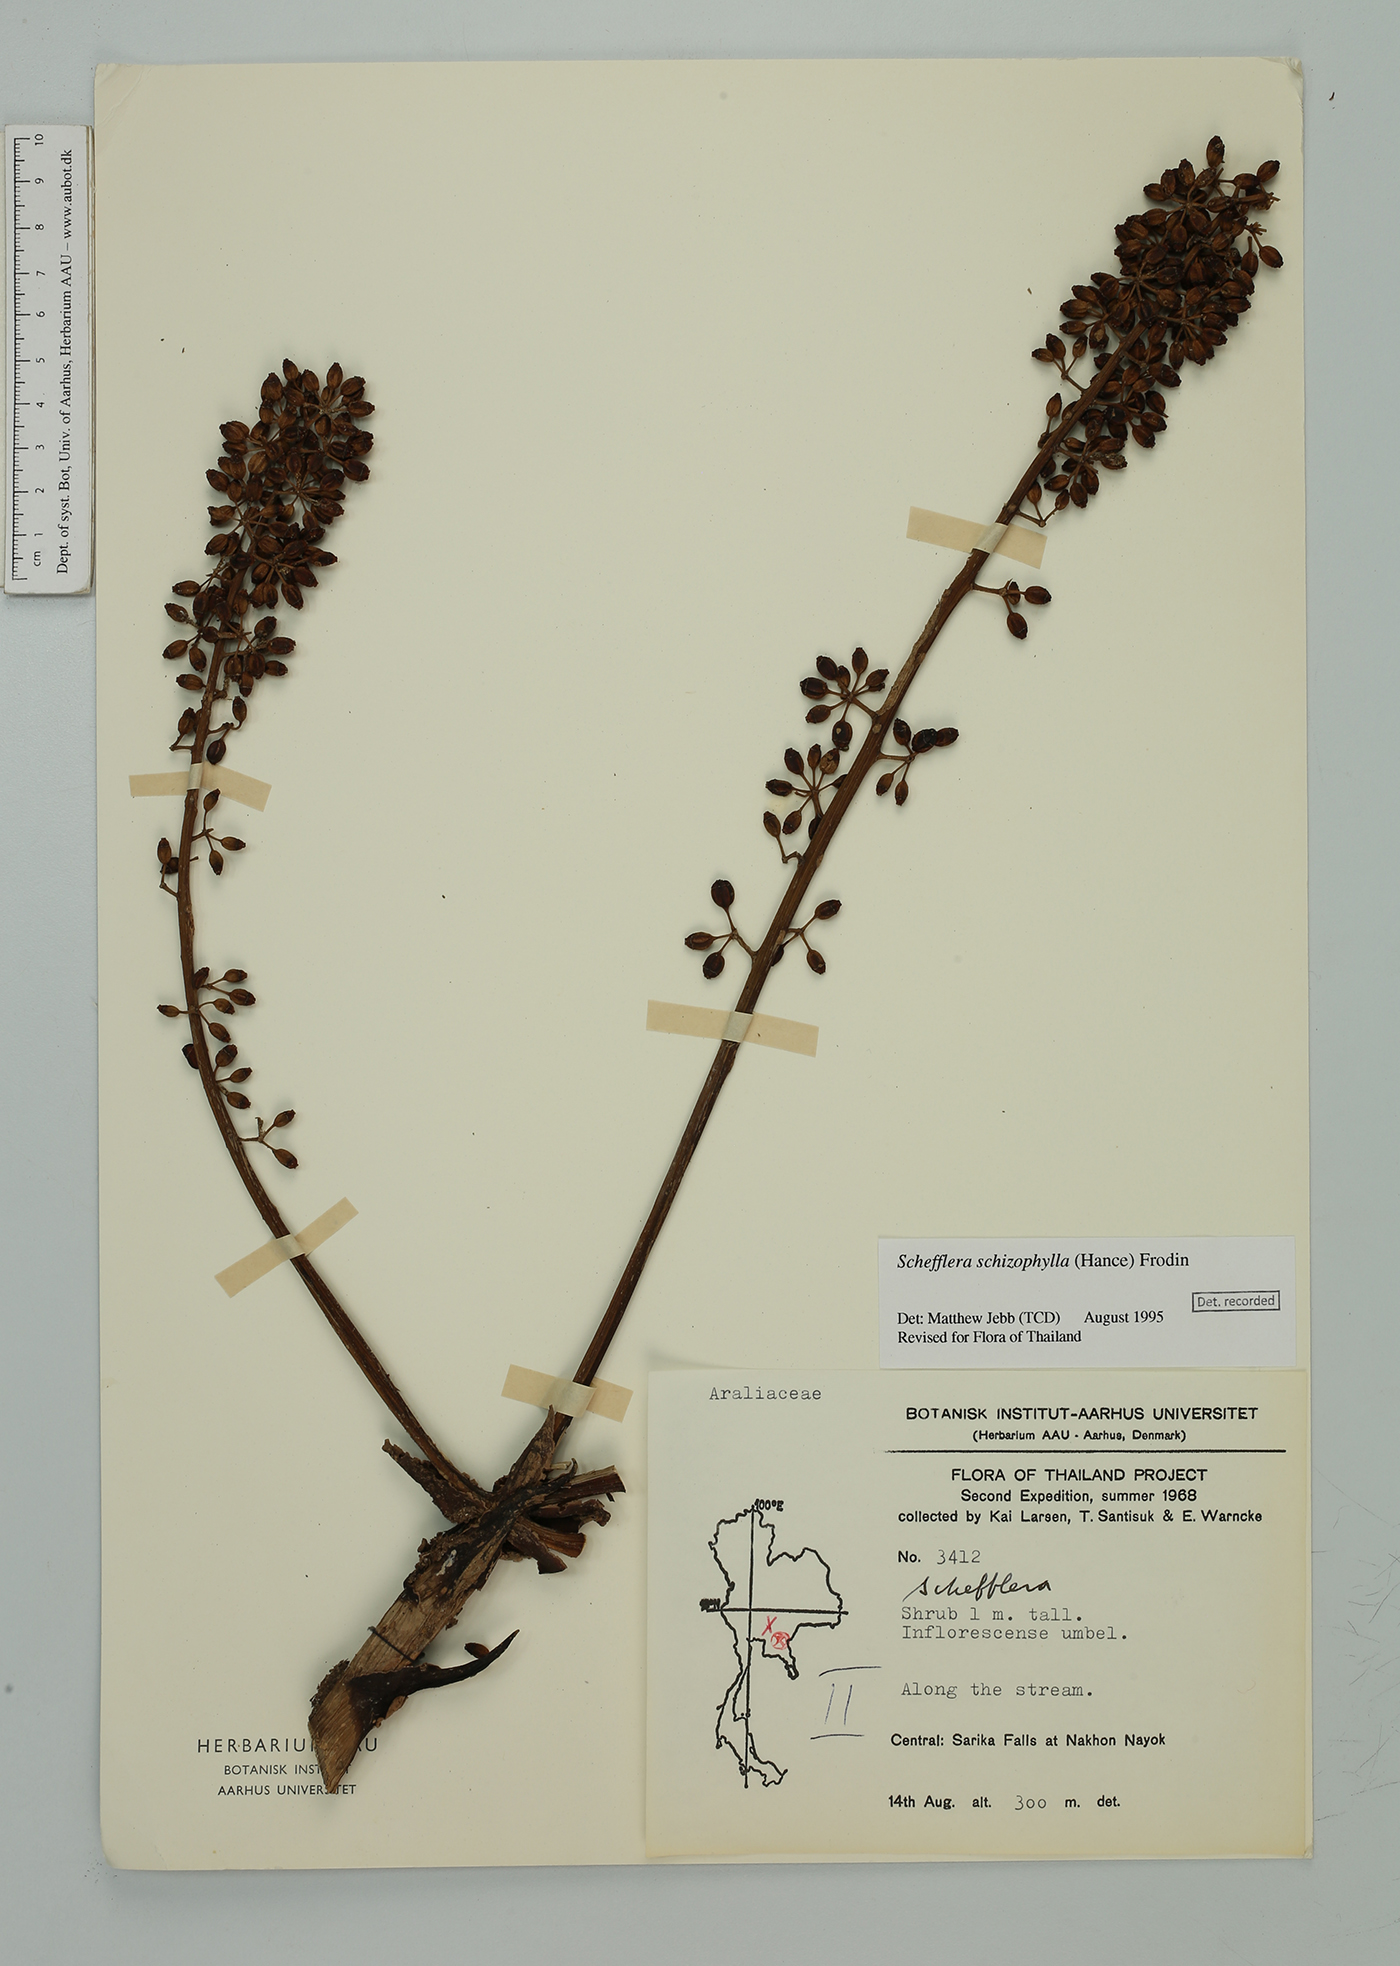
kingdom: Plantae
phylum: Tracheophyta
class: Magnoliopsida
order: Apiales
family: Araliaceae
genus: Heptapleurum
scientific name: Heptapleurum schizophyllum
